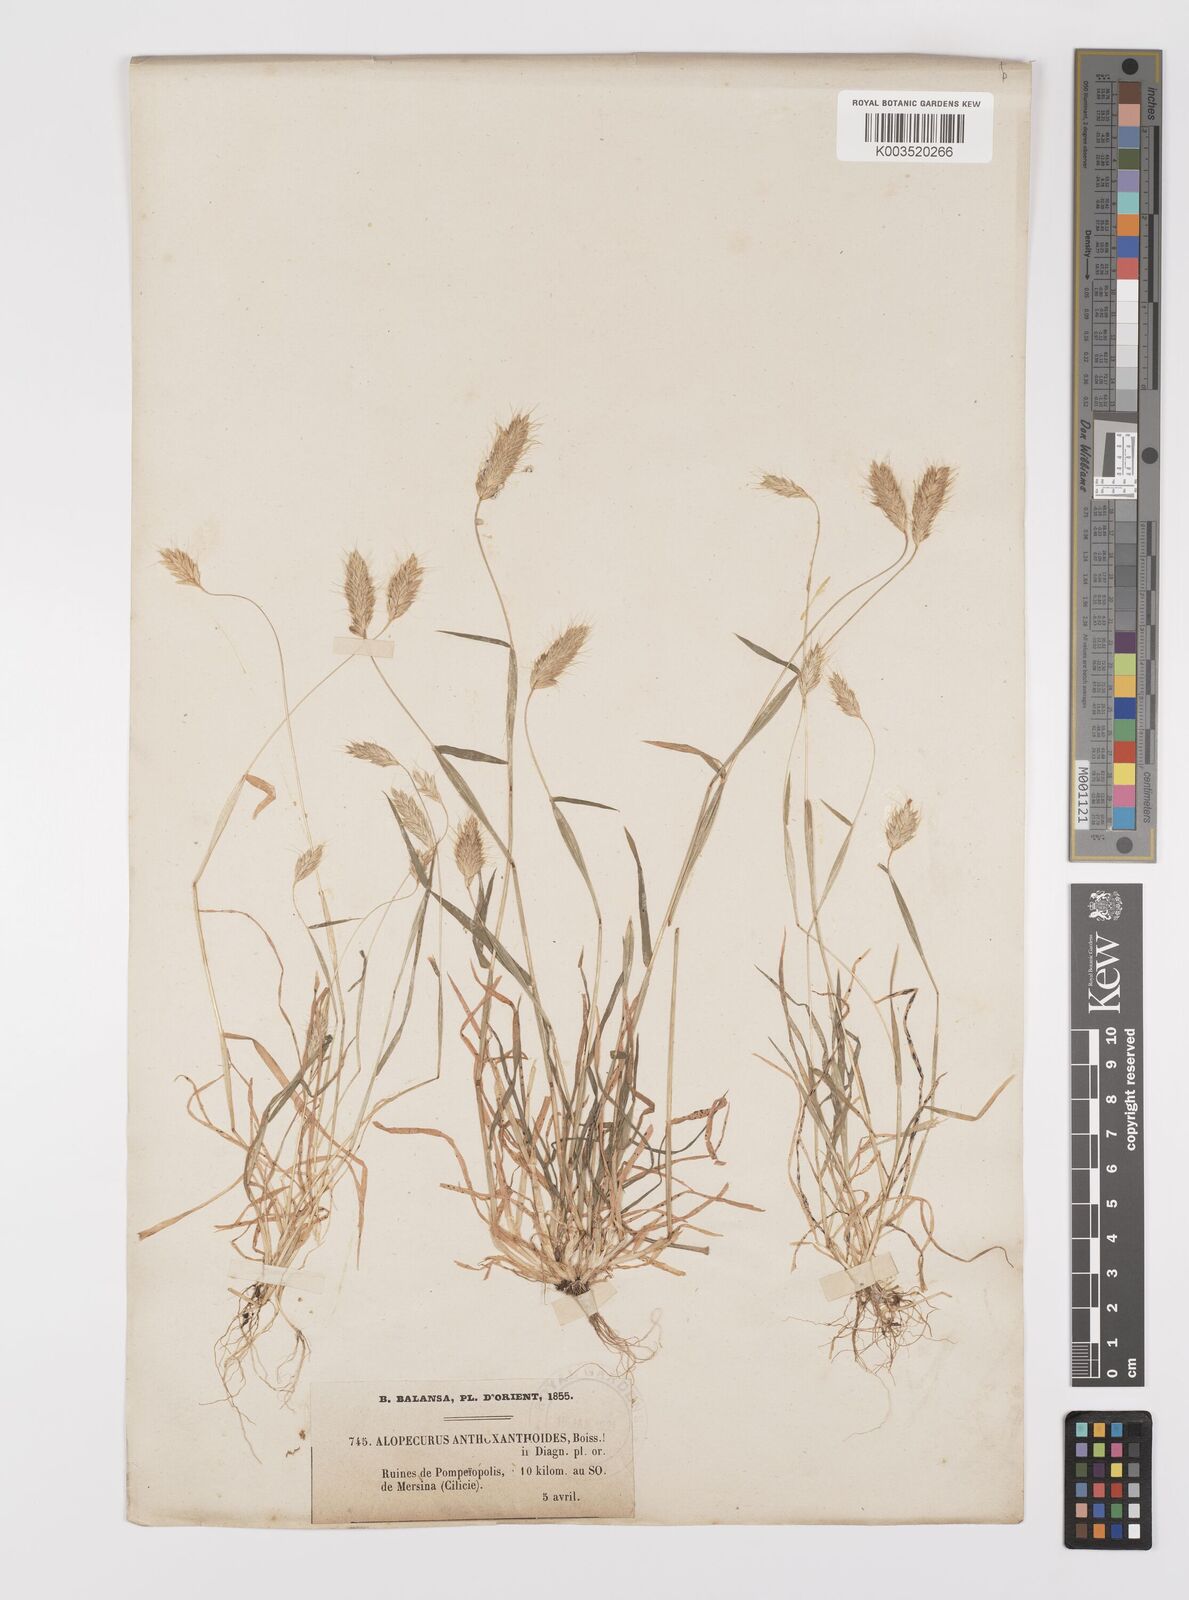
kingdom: Plantae
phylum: Tracheophyta
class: Liliopsida
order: Poales
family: Poaceae
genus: Alopecurus
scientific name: Alopecurus utriculatus
